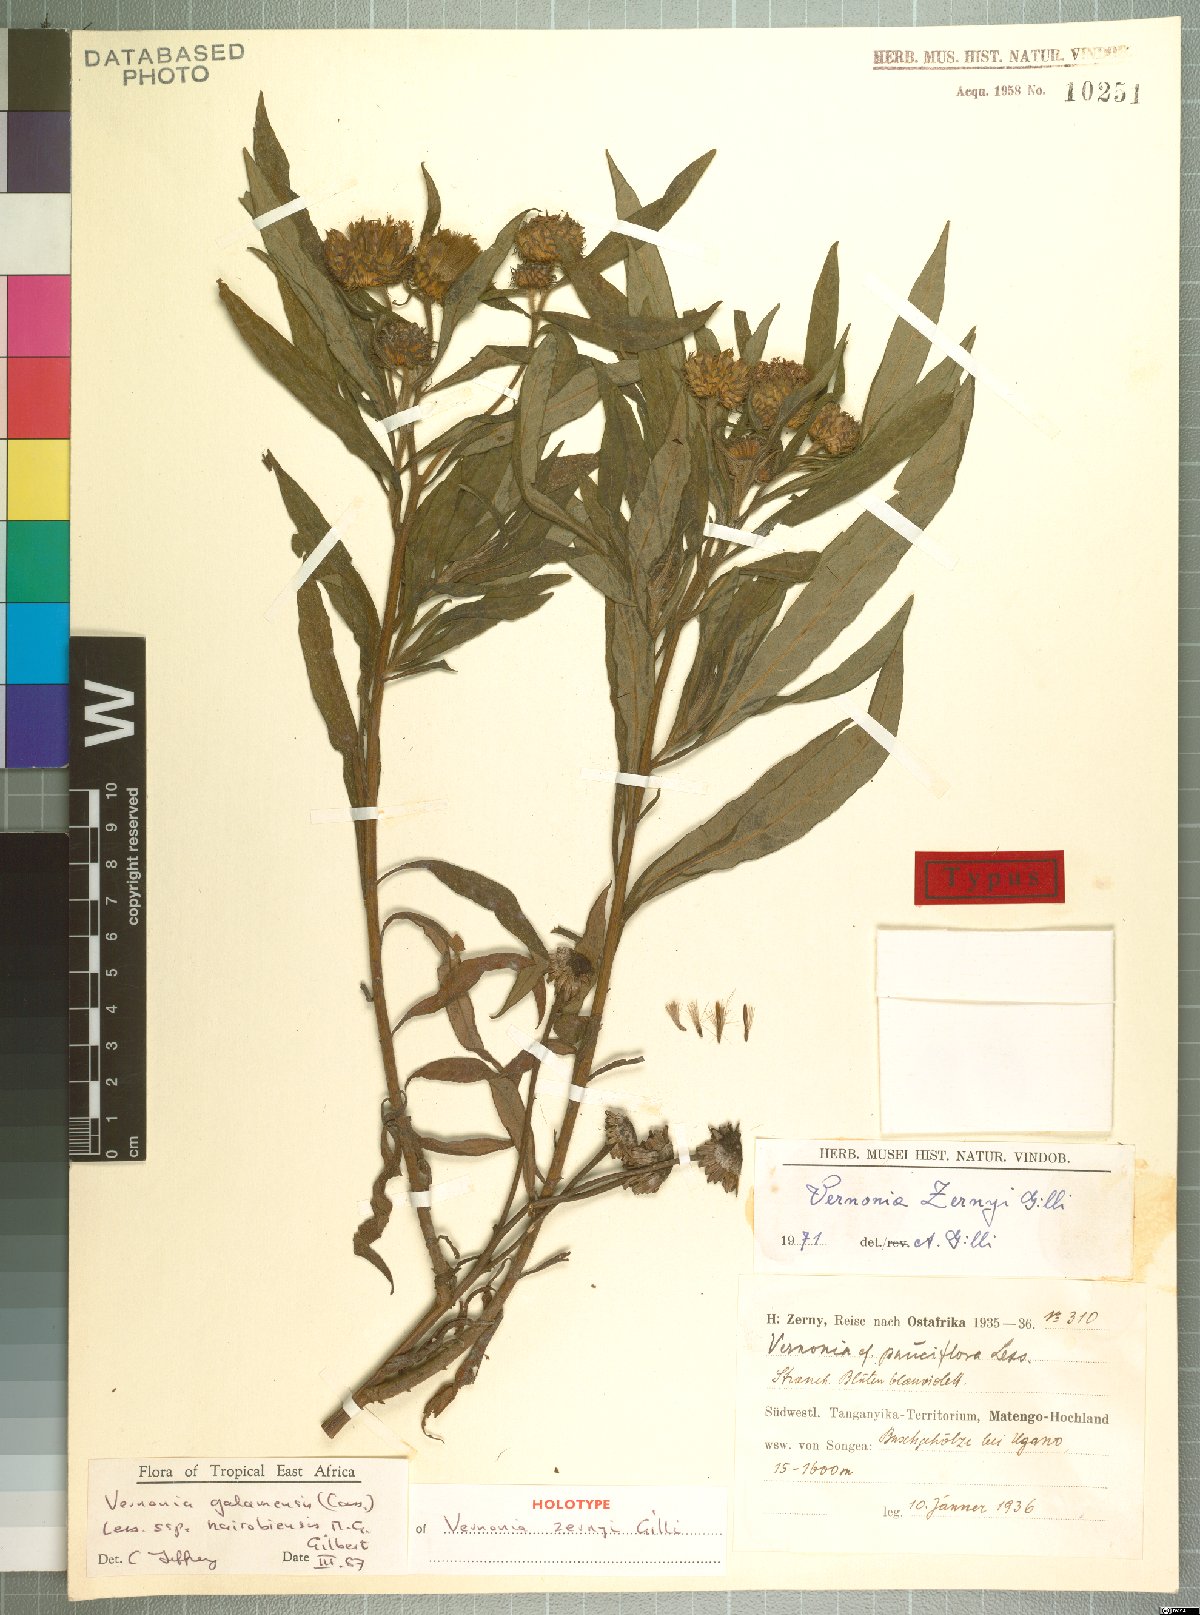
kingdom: Plantae
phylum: Tracheophyta
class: Magnoliopsida
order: Asterales
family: Asteraceae
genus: Vernonia
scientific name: Vernonia galamensis
